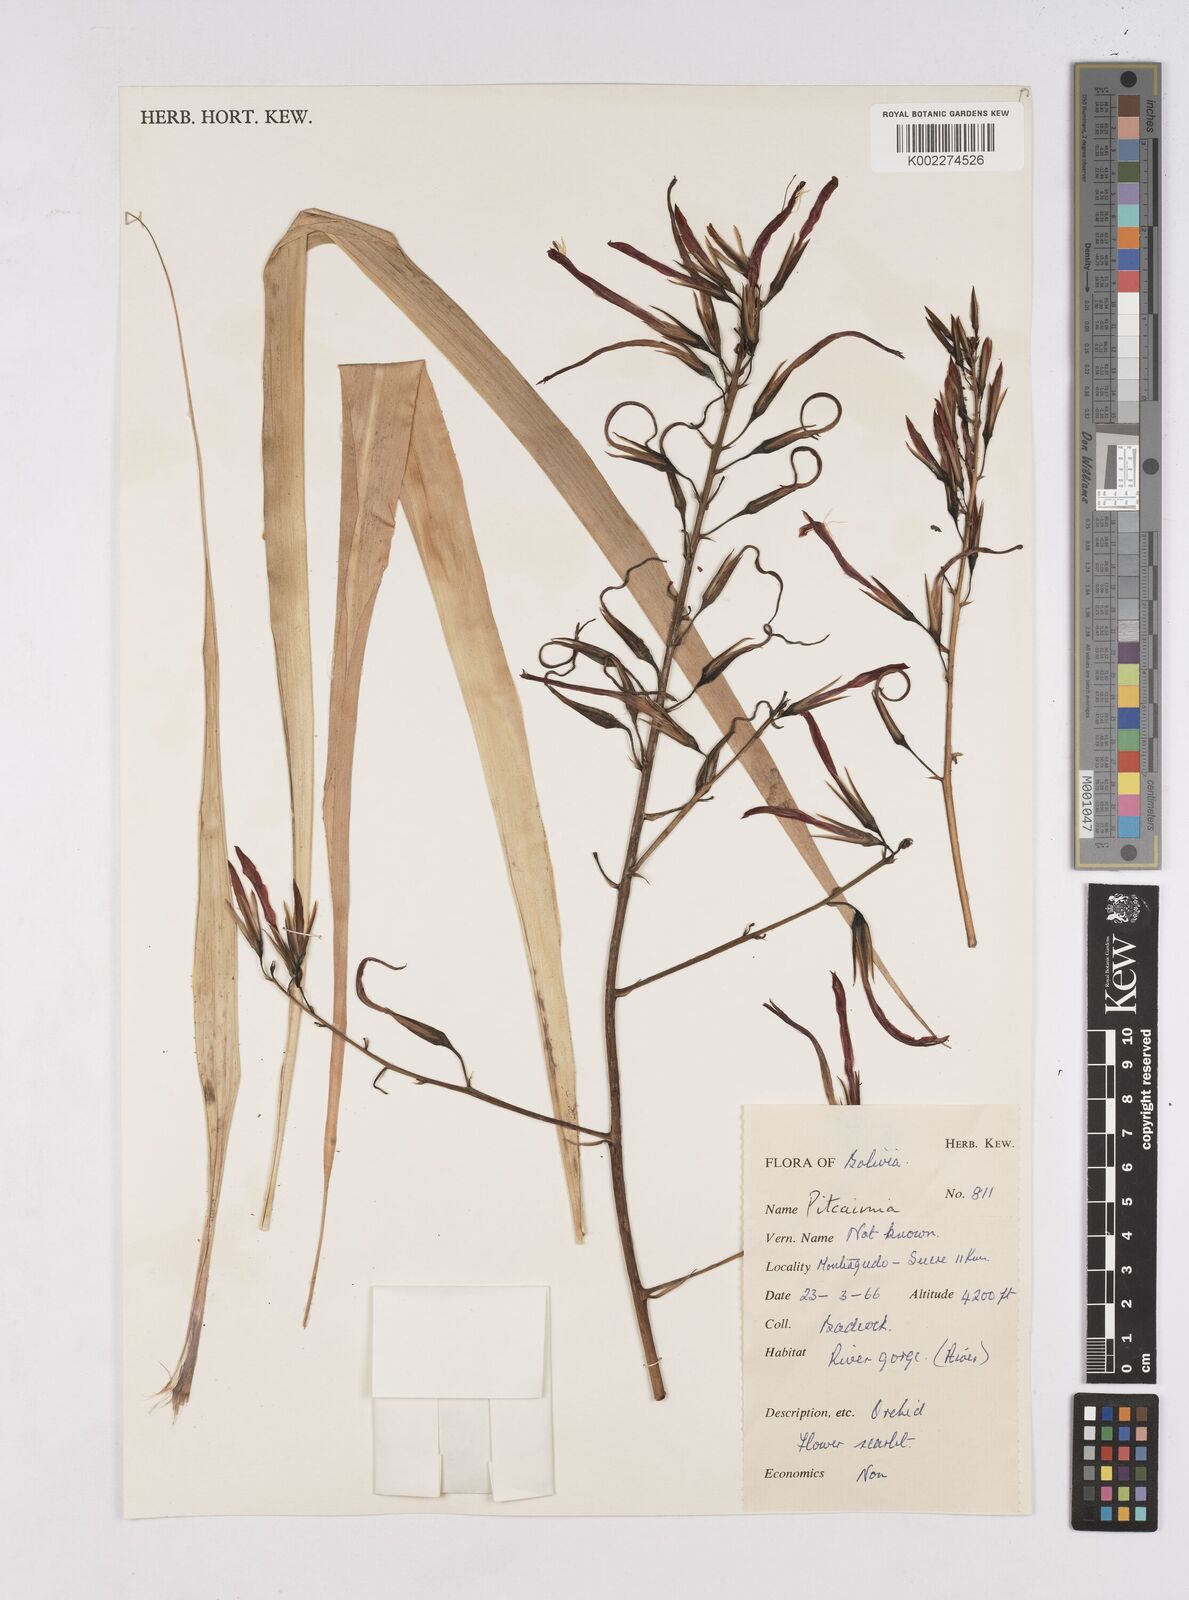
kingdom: Plantae
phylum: Tracheophyta
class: Liliopsida
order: Poales
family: Bromeliaceae
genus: Pitcairnia
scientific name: Pitcairnia
